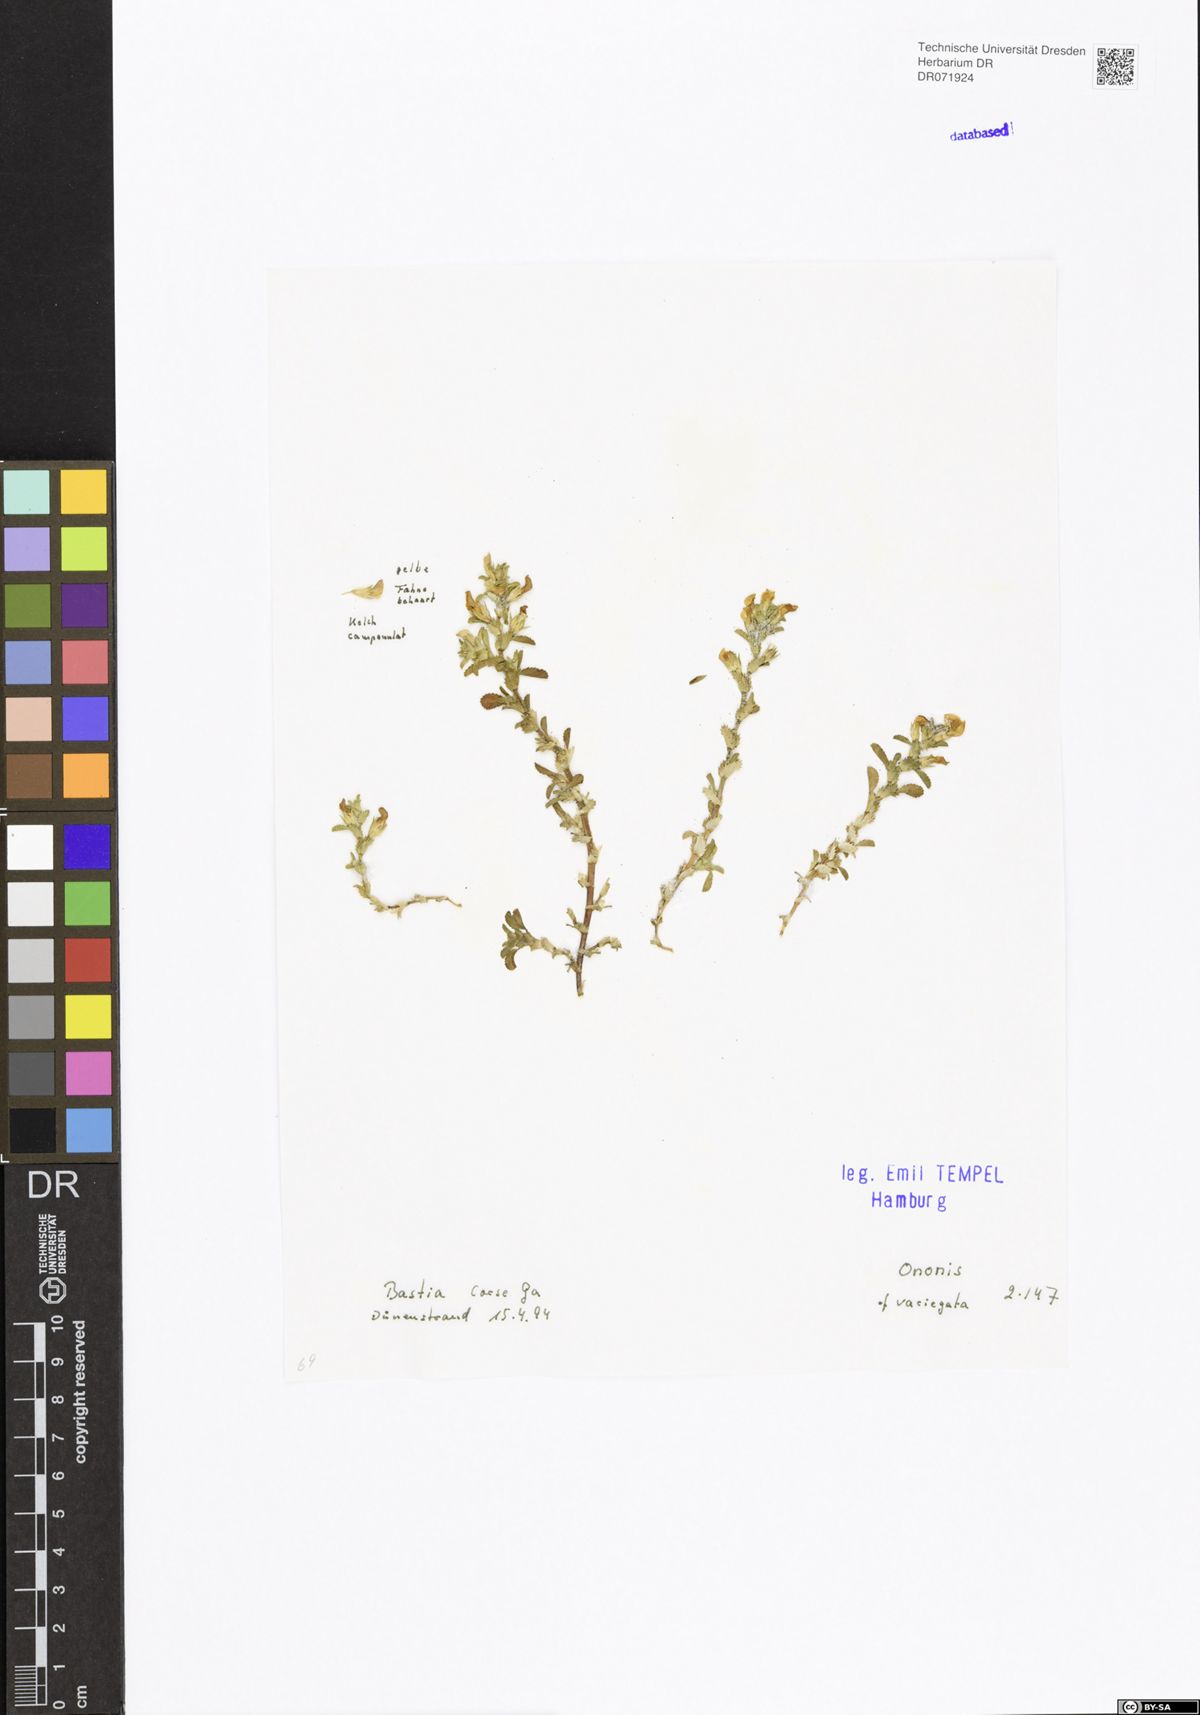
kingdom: Plantae
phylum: Tracheophyta
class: Magnoliopsida
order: Fabales
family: Fabaceae
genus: Ononis
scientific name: Ononis variegata
